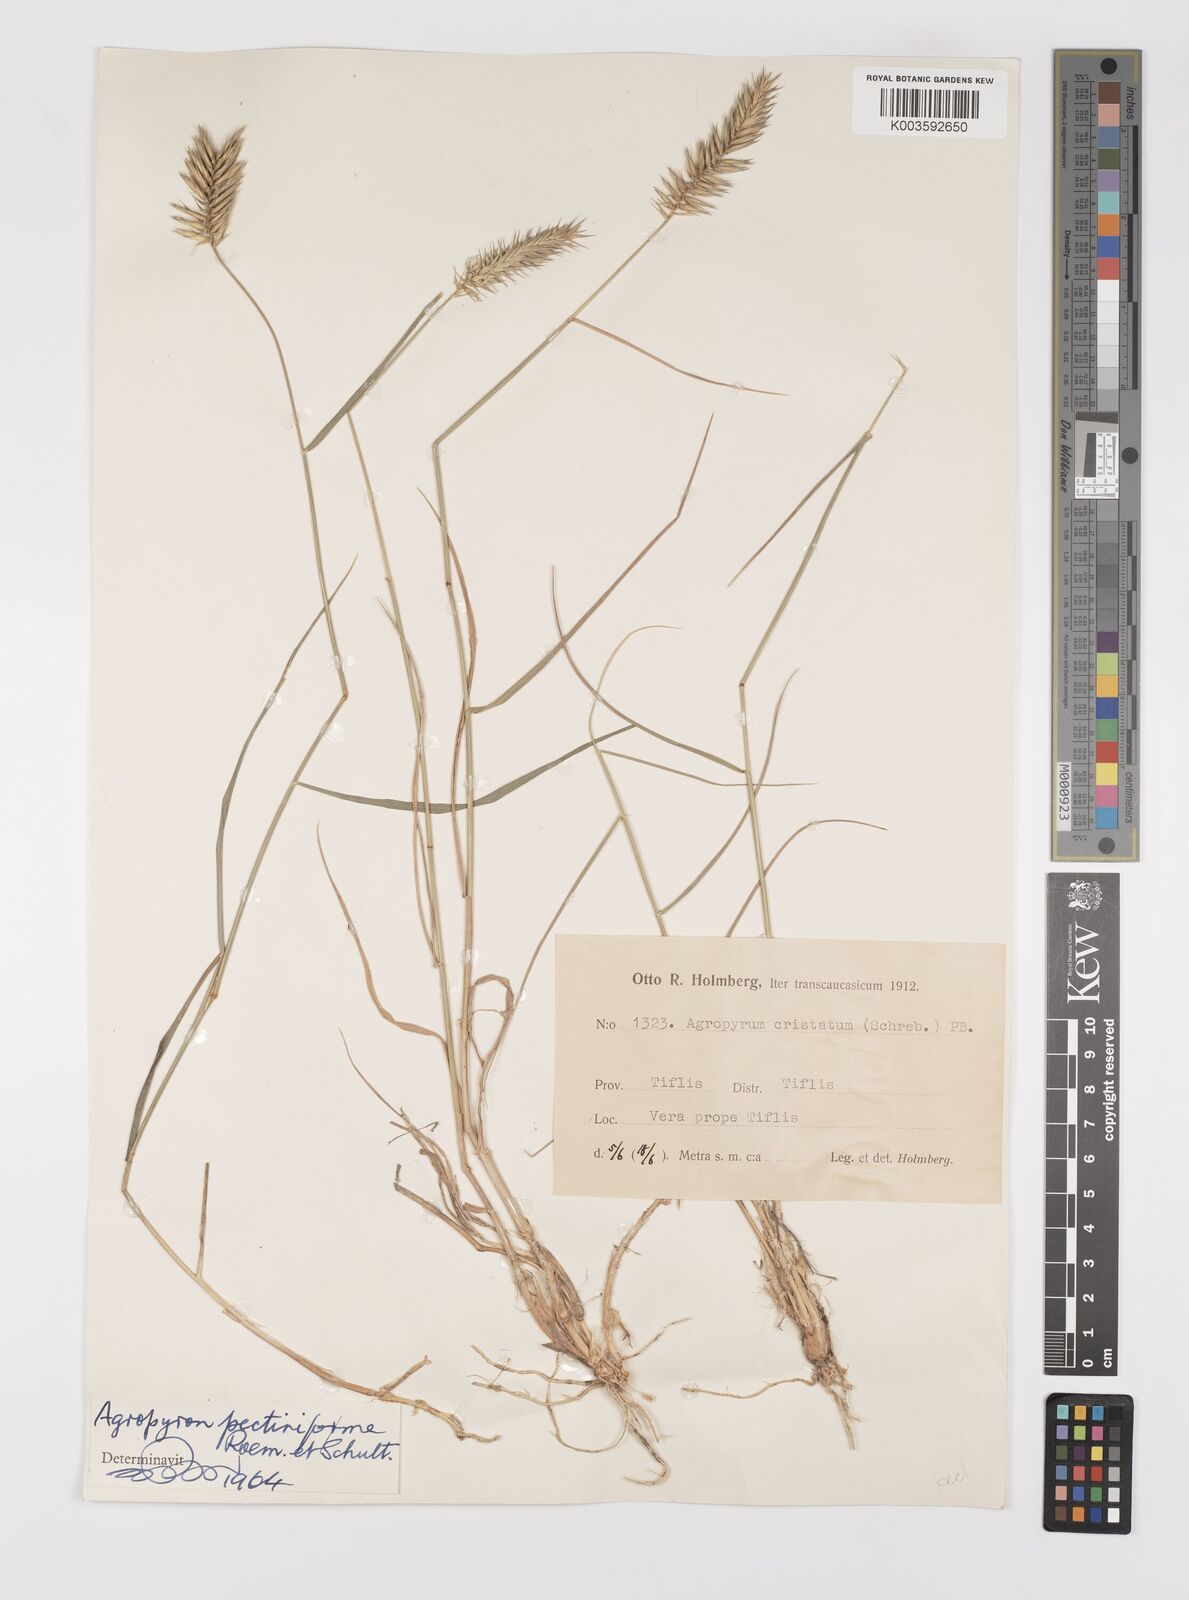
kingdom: Plantae
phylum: Tracheophyta
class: Liliopsida
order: Poales
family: Poaceae
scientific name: Poaceae
